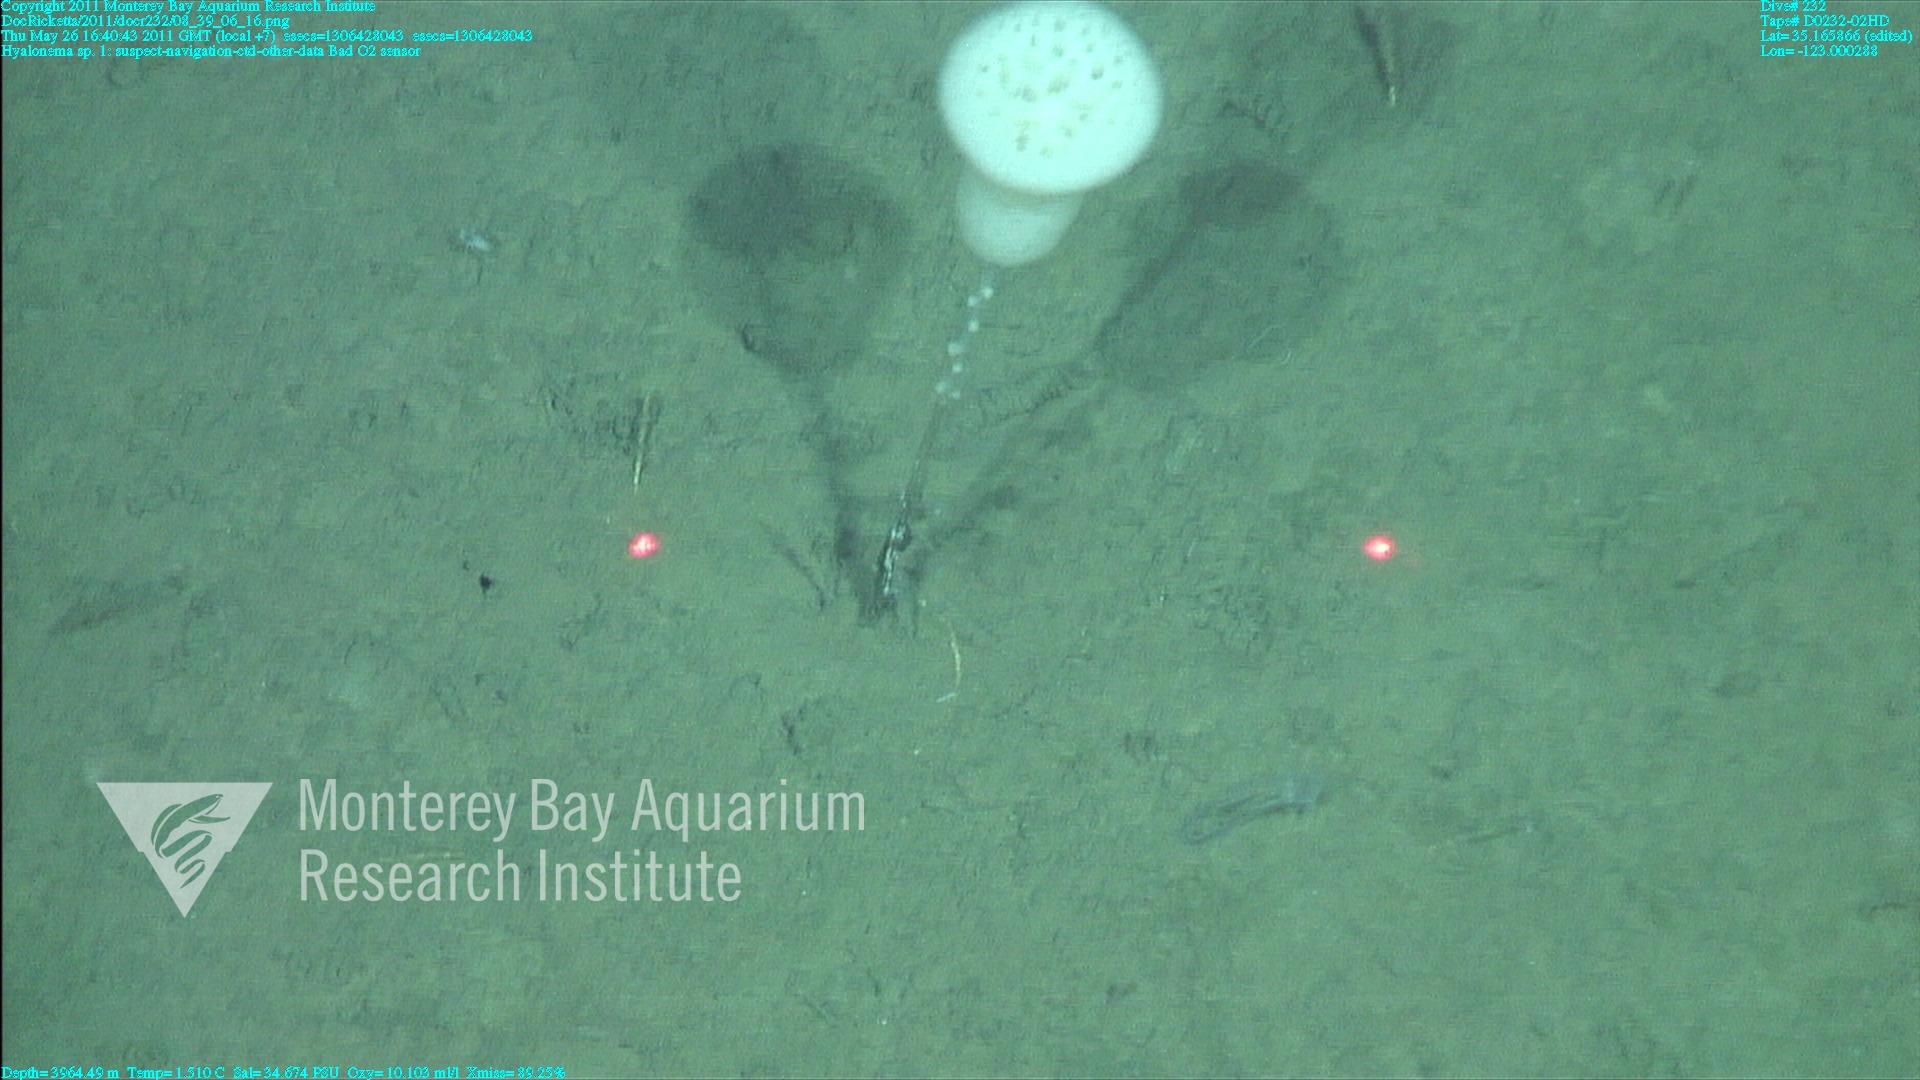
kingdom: Animalia
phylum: Porifera
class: Hexactinellida
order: Amphidiscosida
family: Hyalonematidae
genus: Hyalonema
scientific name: Hyalonema
